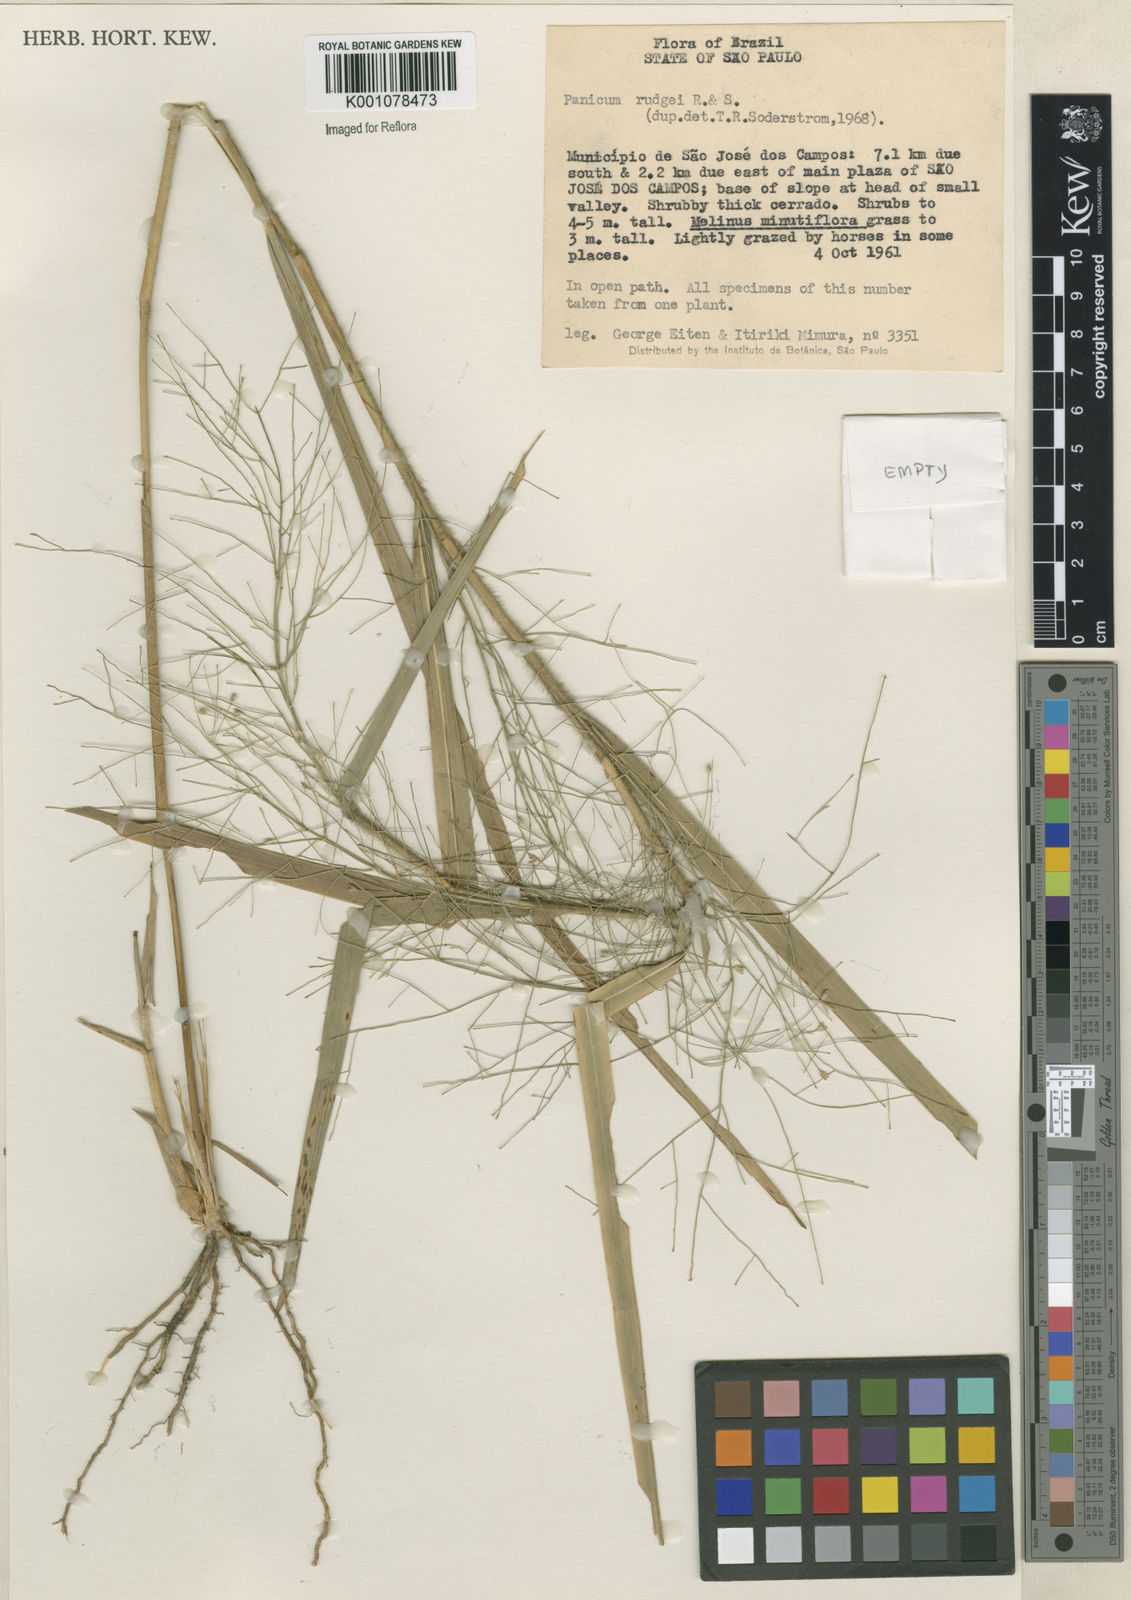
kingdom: Plantae
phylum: Tracheophyta
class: Liliopsida
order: Poales
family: Poaceae
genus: Panicum
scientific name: Panicum rudgei
